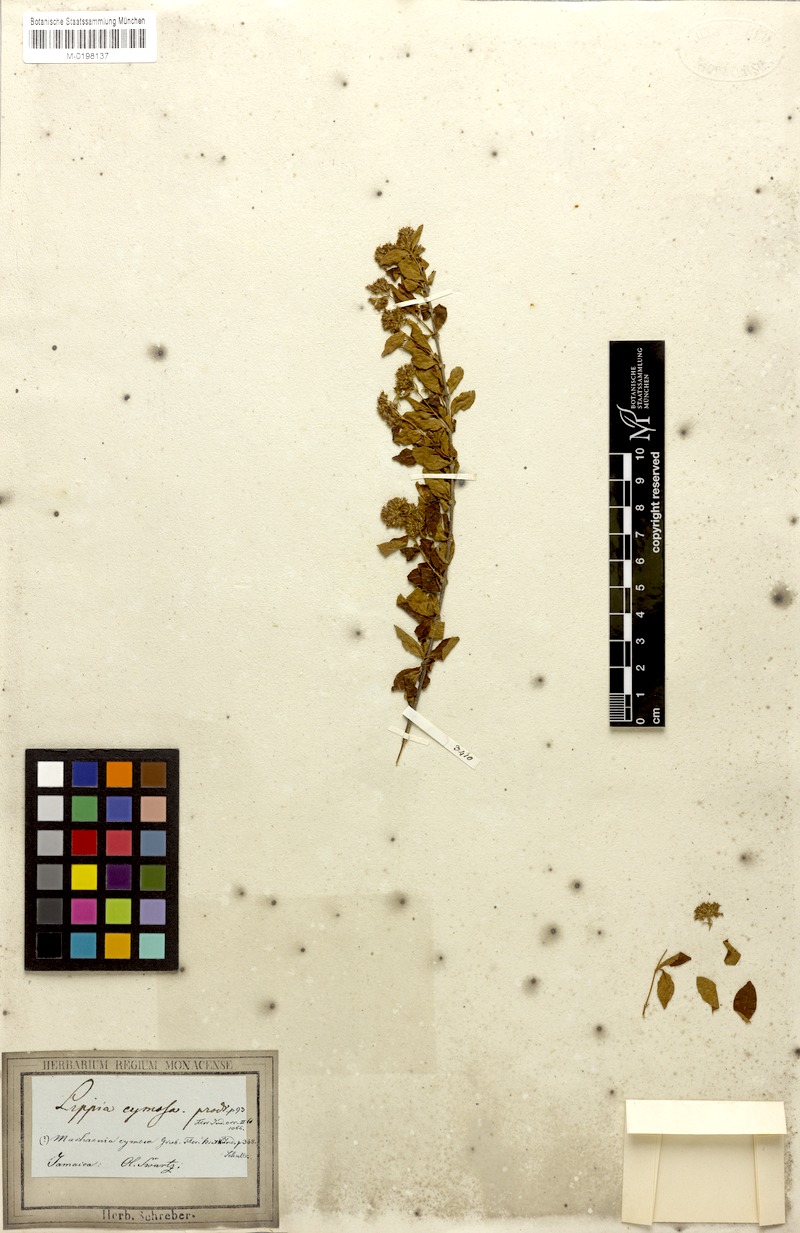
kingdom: Plantae
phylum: Tracheophyta
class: Magnoliopsida
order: Gentianales
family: Rubiaceae
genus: Machaonia
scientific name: Machaonia cymosa
